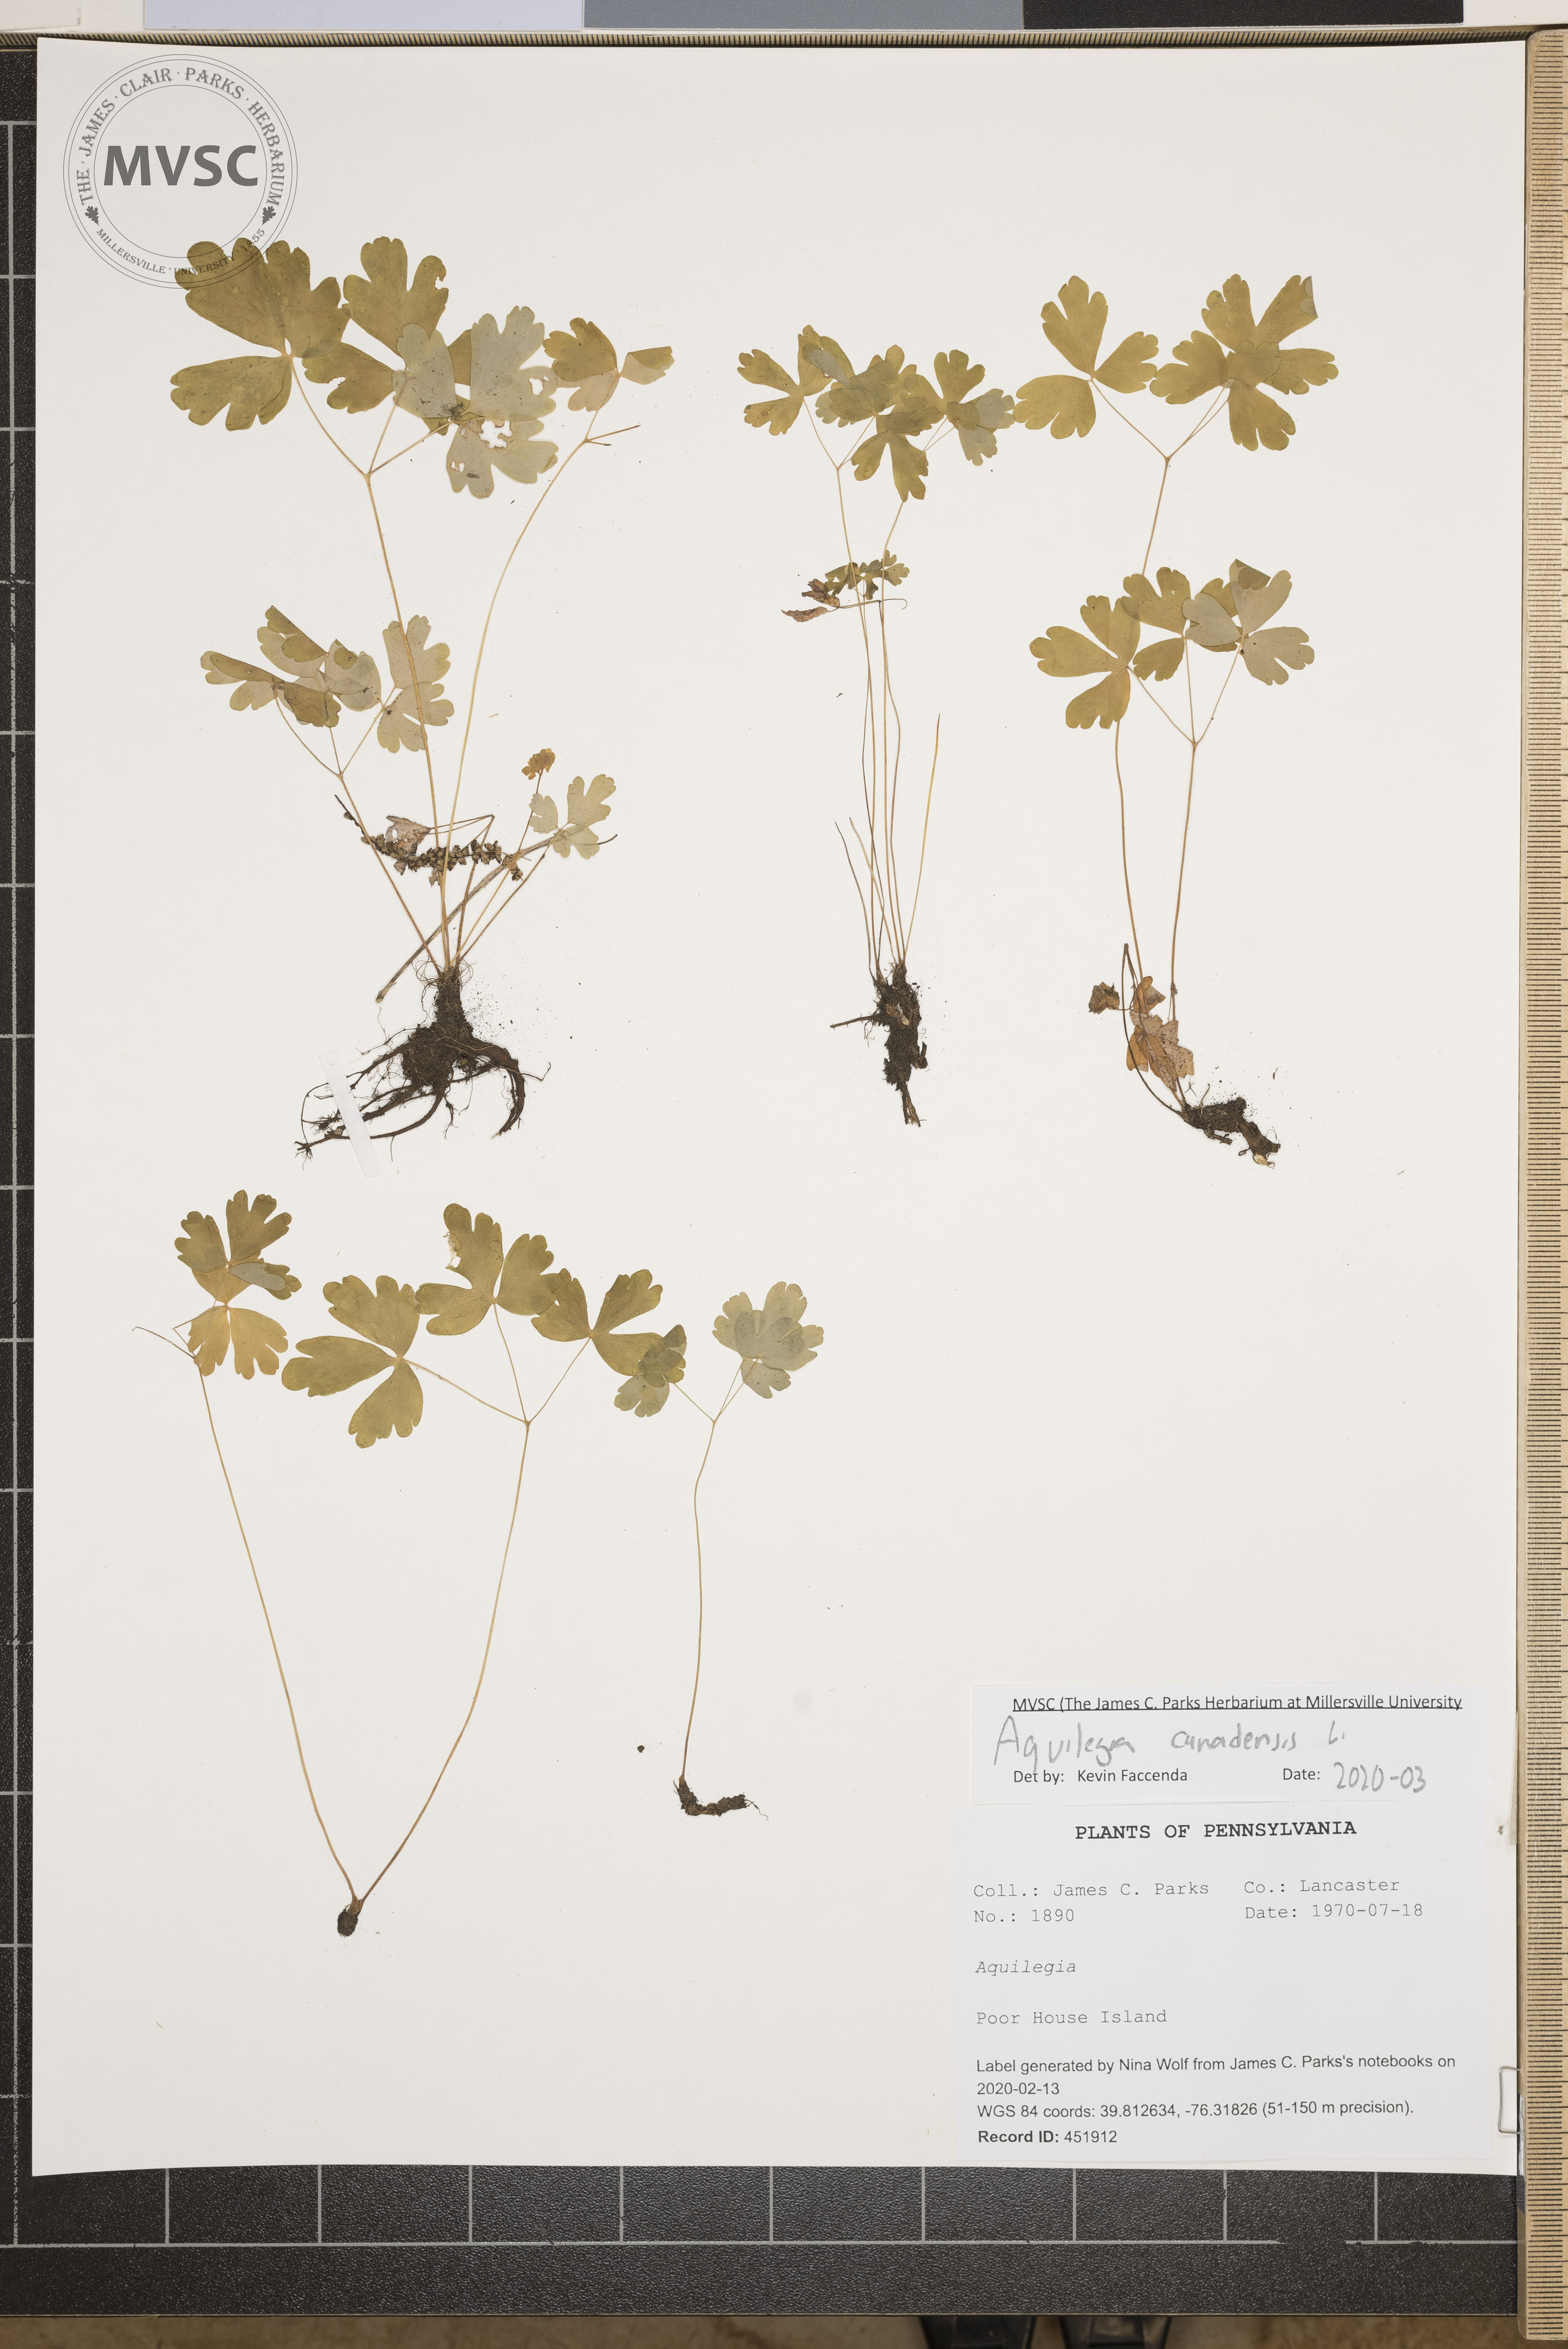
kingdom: Plantae
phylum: Tracheophyta
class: Magnoliopsida
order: Ranunculales
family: Ranunculaceae
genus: Aquilegia
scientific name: Aquilegia canadensis
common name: American columbine
